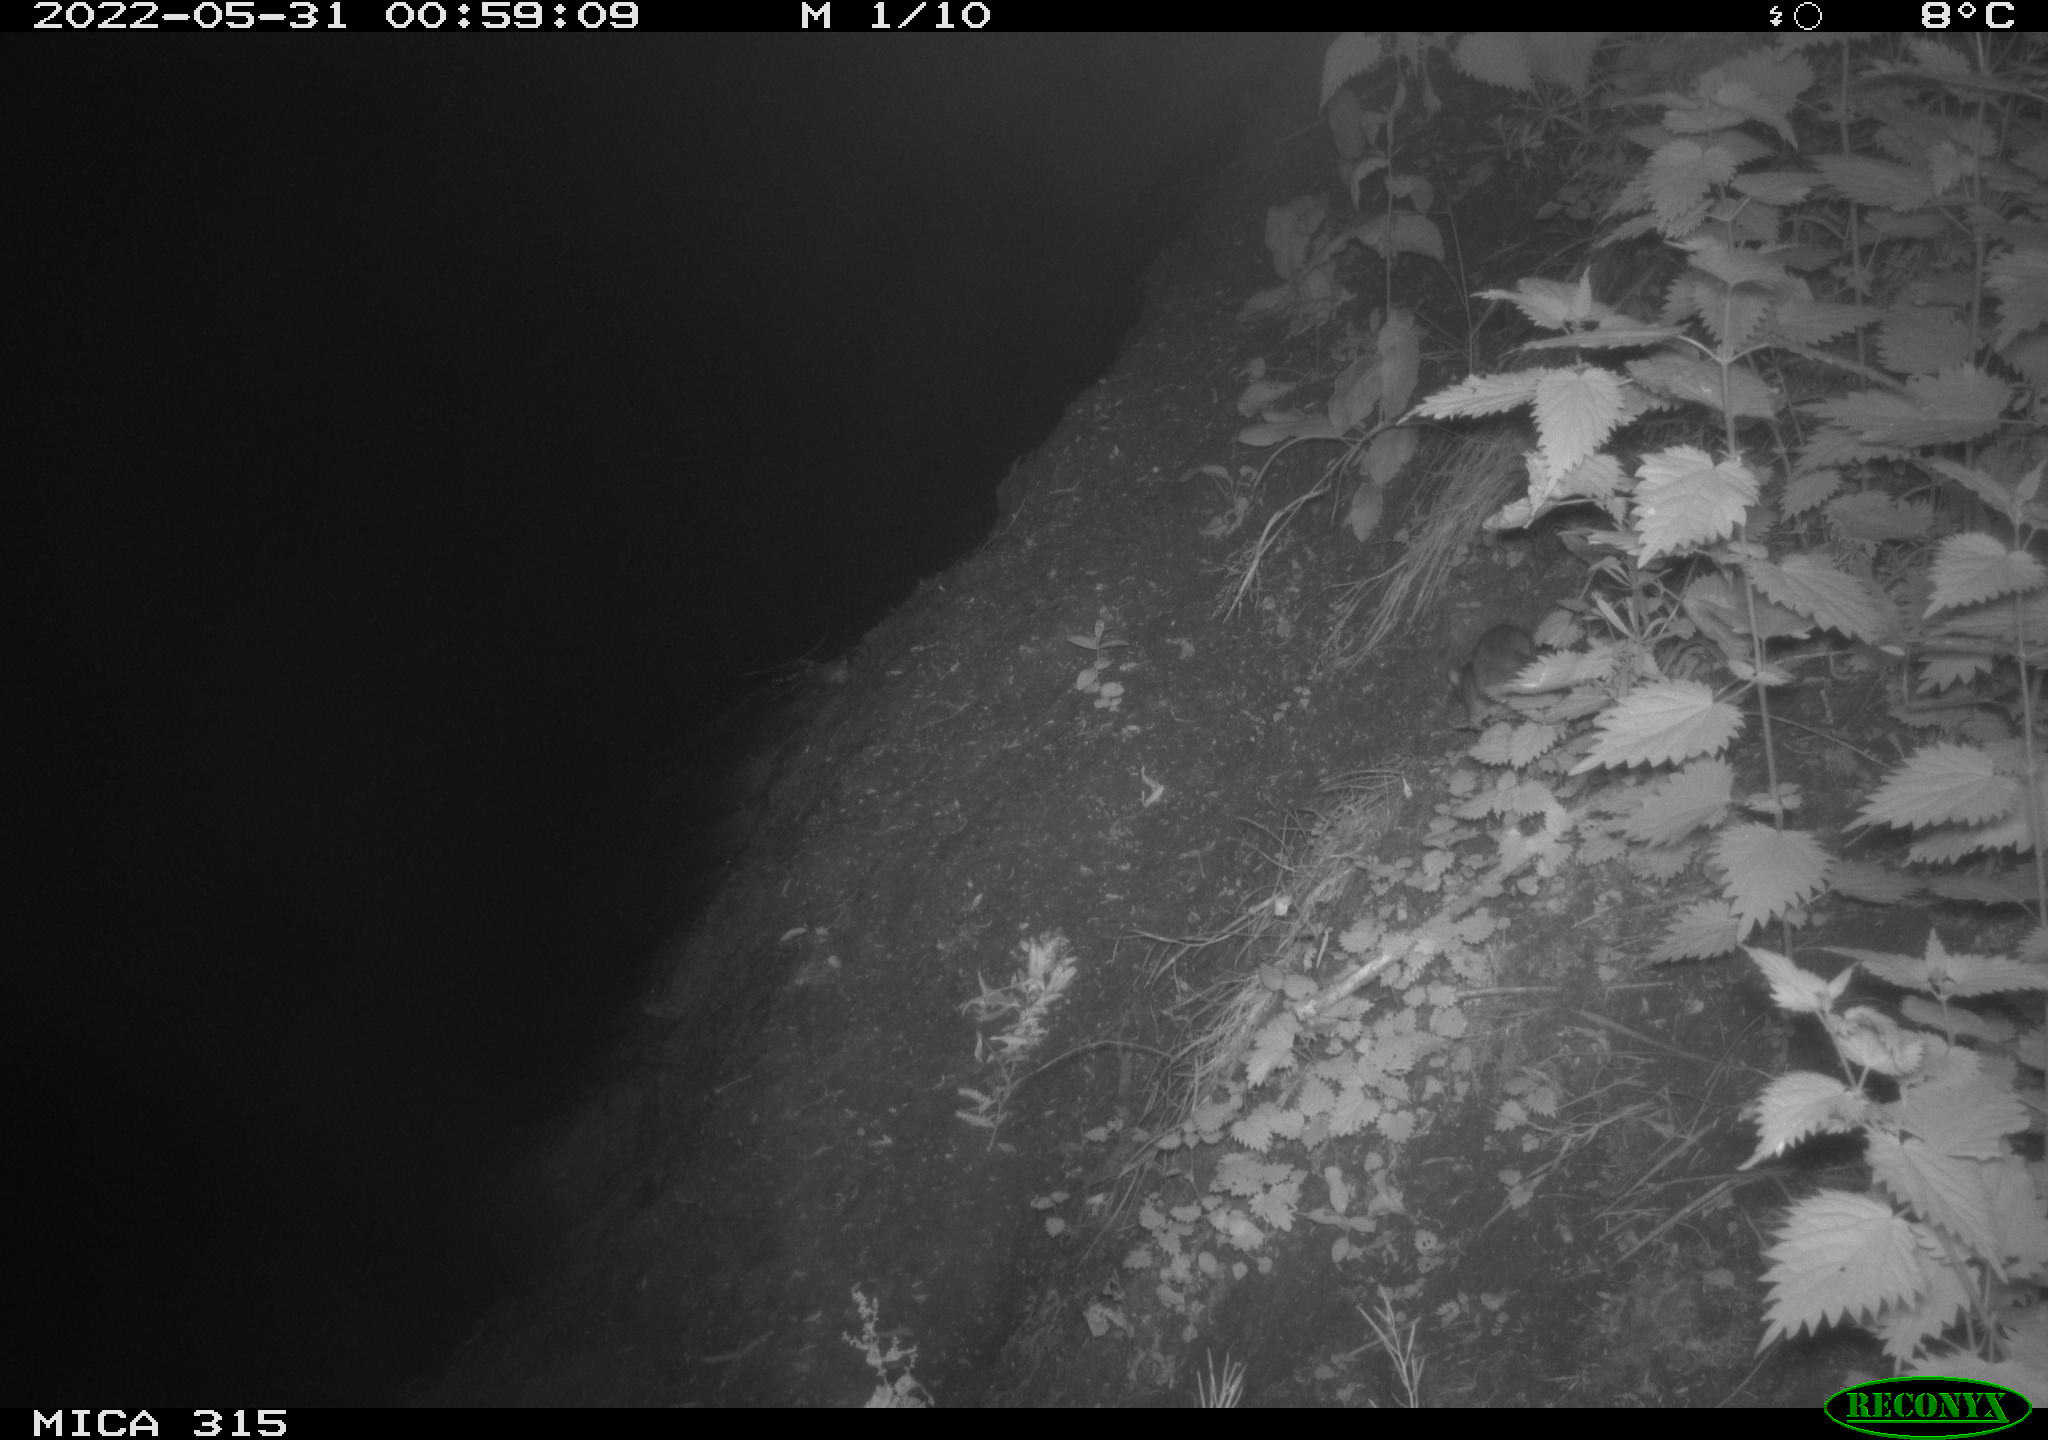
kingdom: Animalia
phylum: Chordata
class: Mammalia
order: Rodentia
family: Muridae
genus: Rattus
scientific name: Rattus norvegicus
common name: Brown rat
